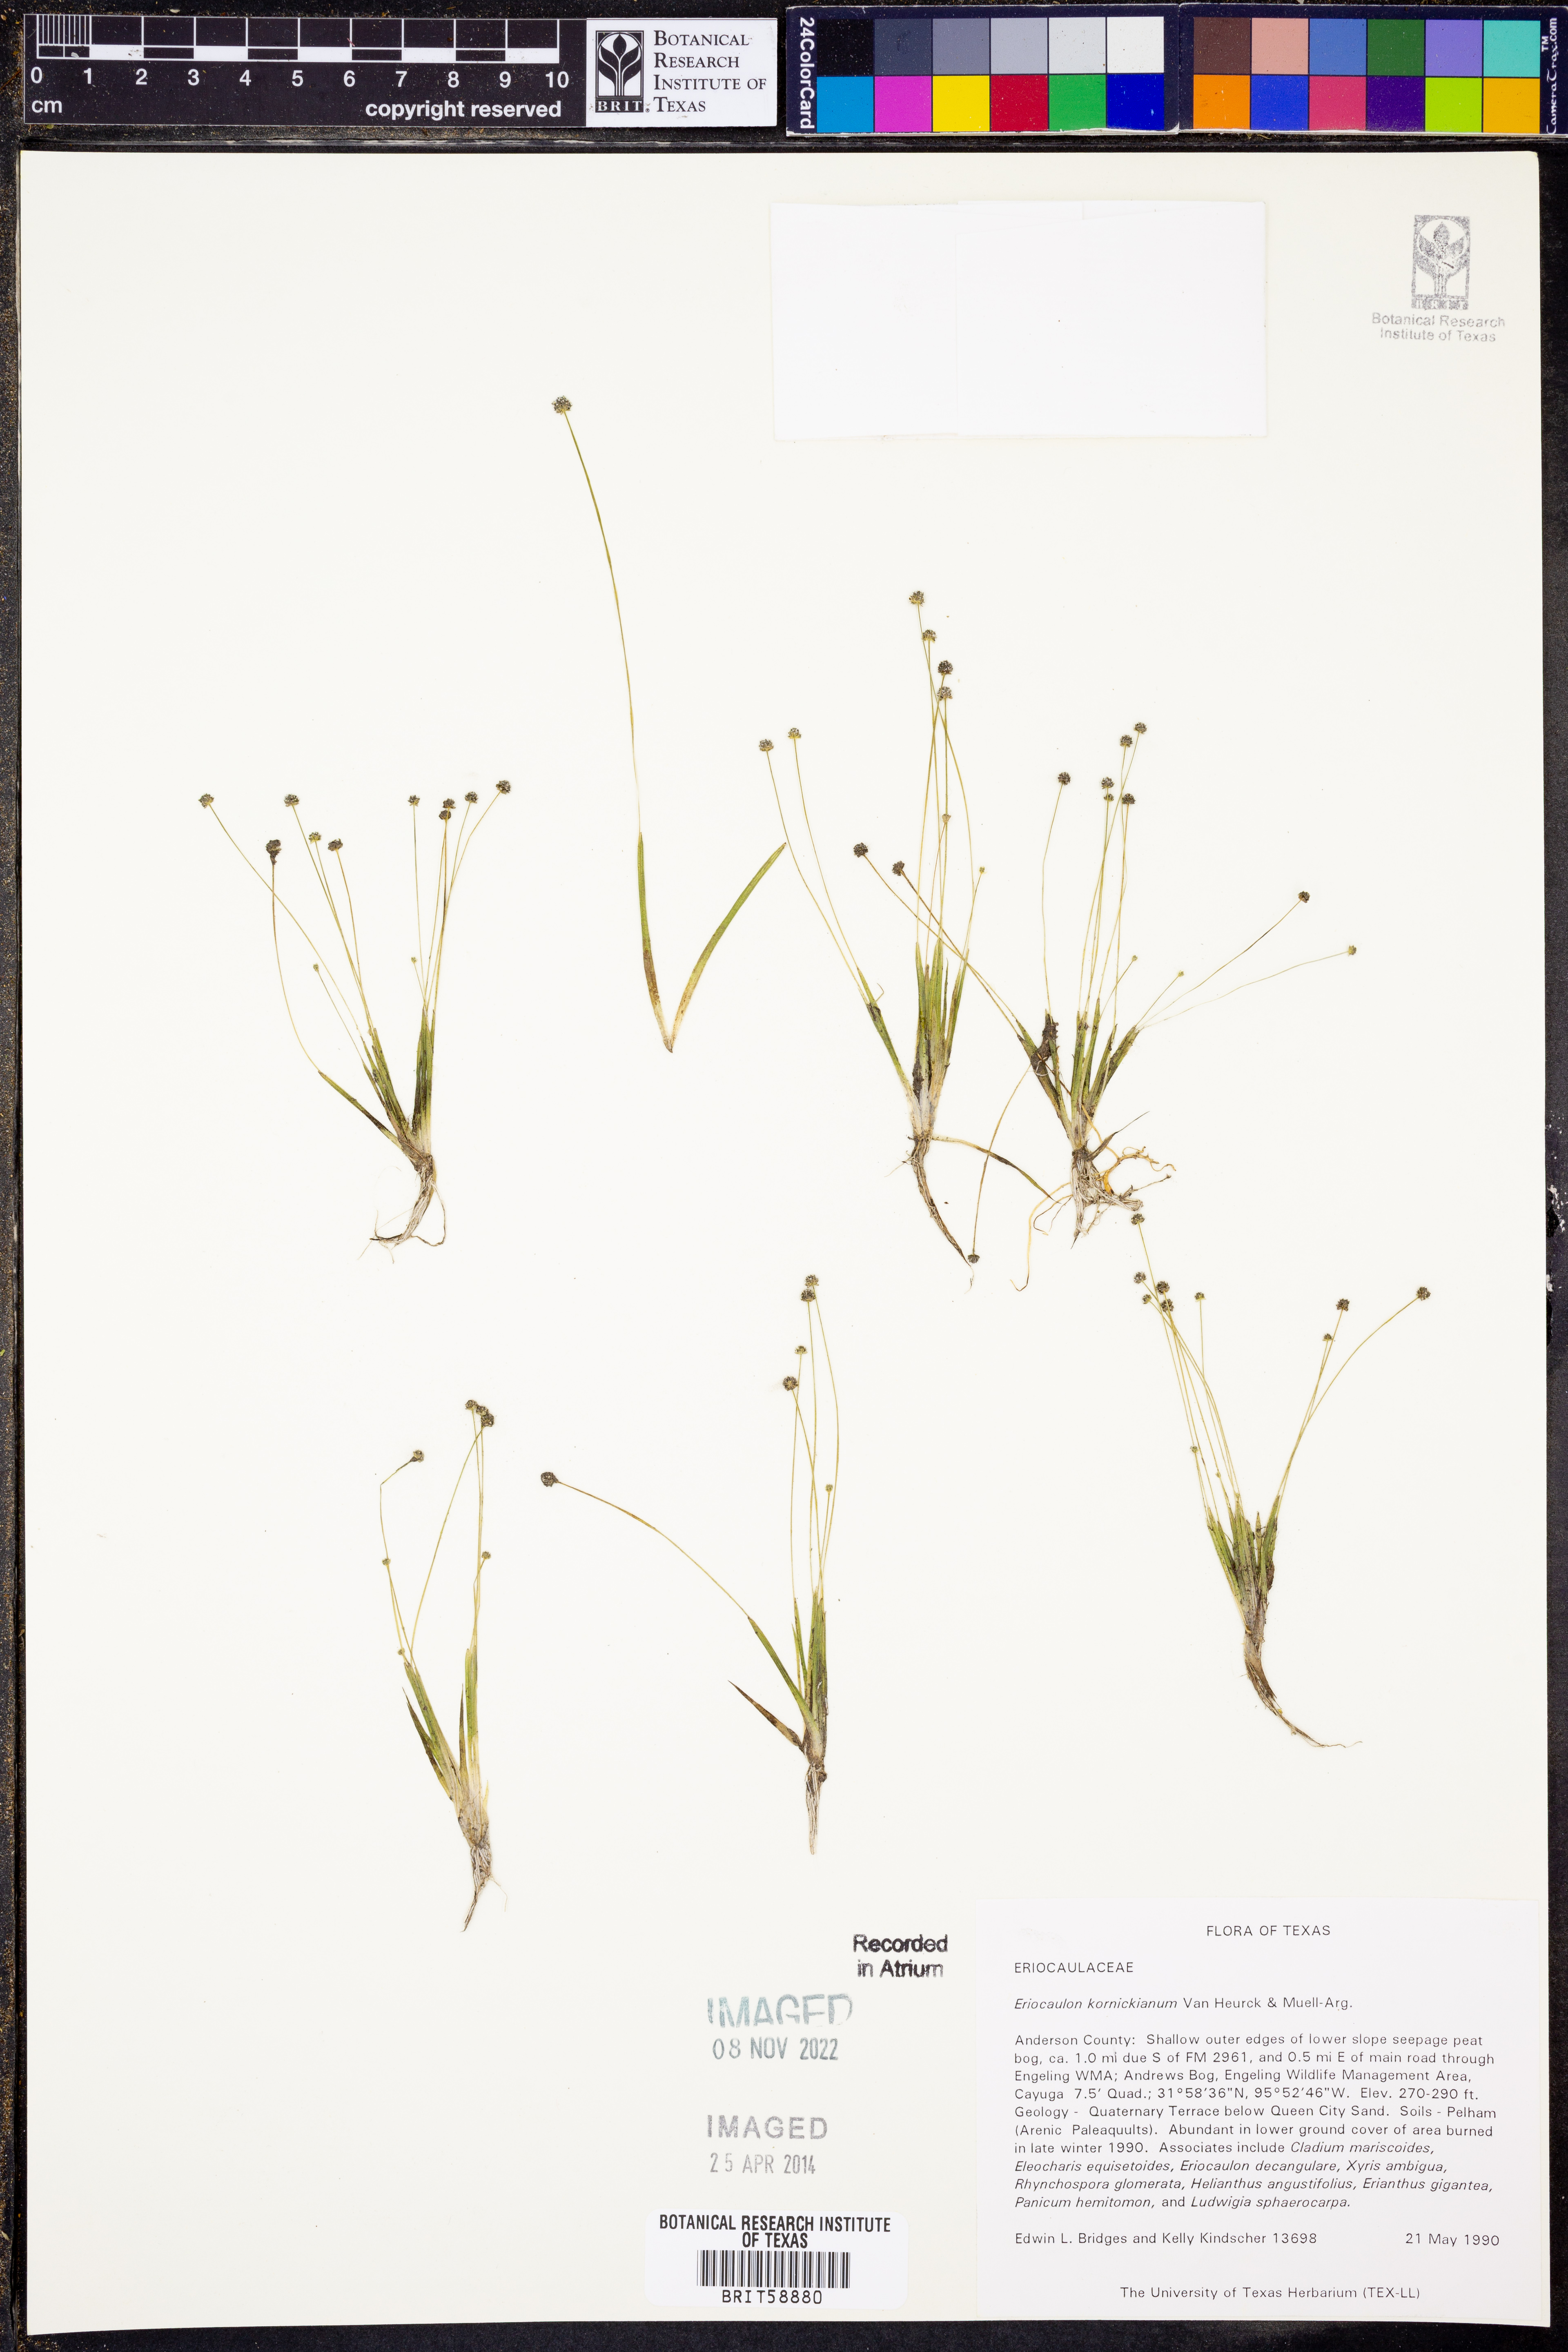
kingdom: Plantae
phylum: Tracheophyta
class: Liliopsida
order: Poales
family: Eriocaulaceae
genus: Eriocaulon
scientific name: Eriocaulon koernickianum
